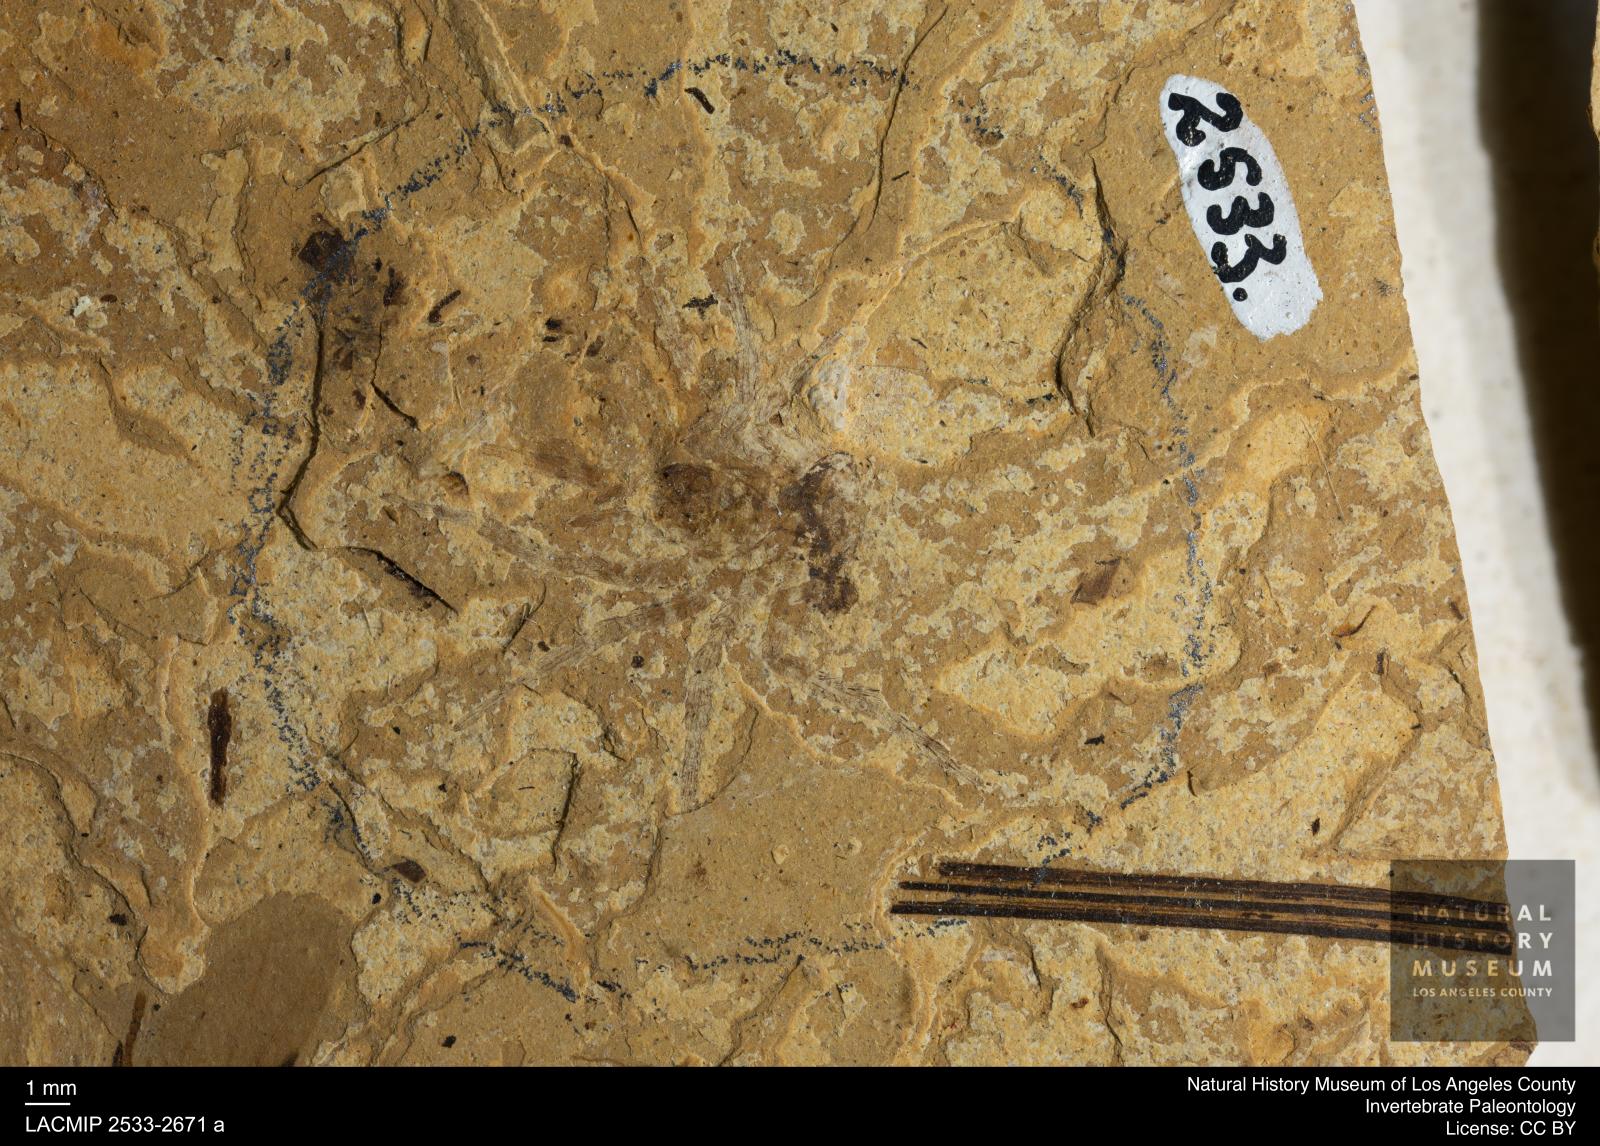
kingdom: Animalia
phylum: Arthropoda
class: Arachnida
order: Araneae
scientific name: Araneae
